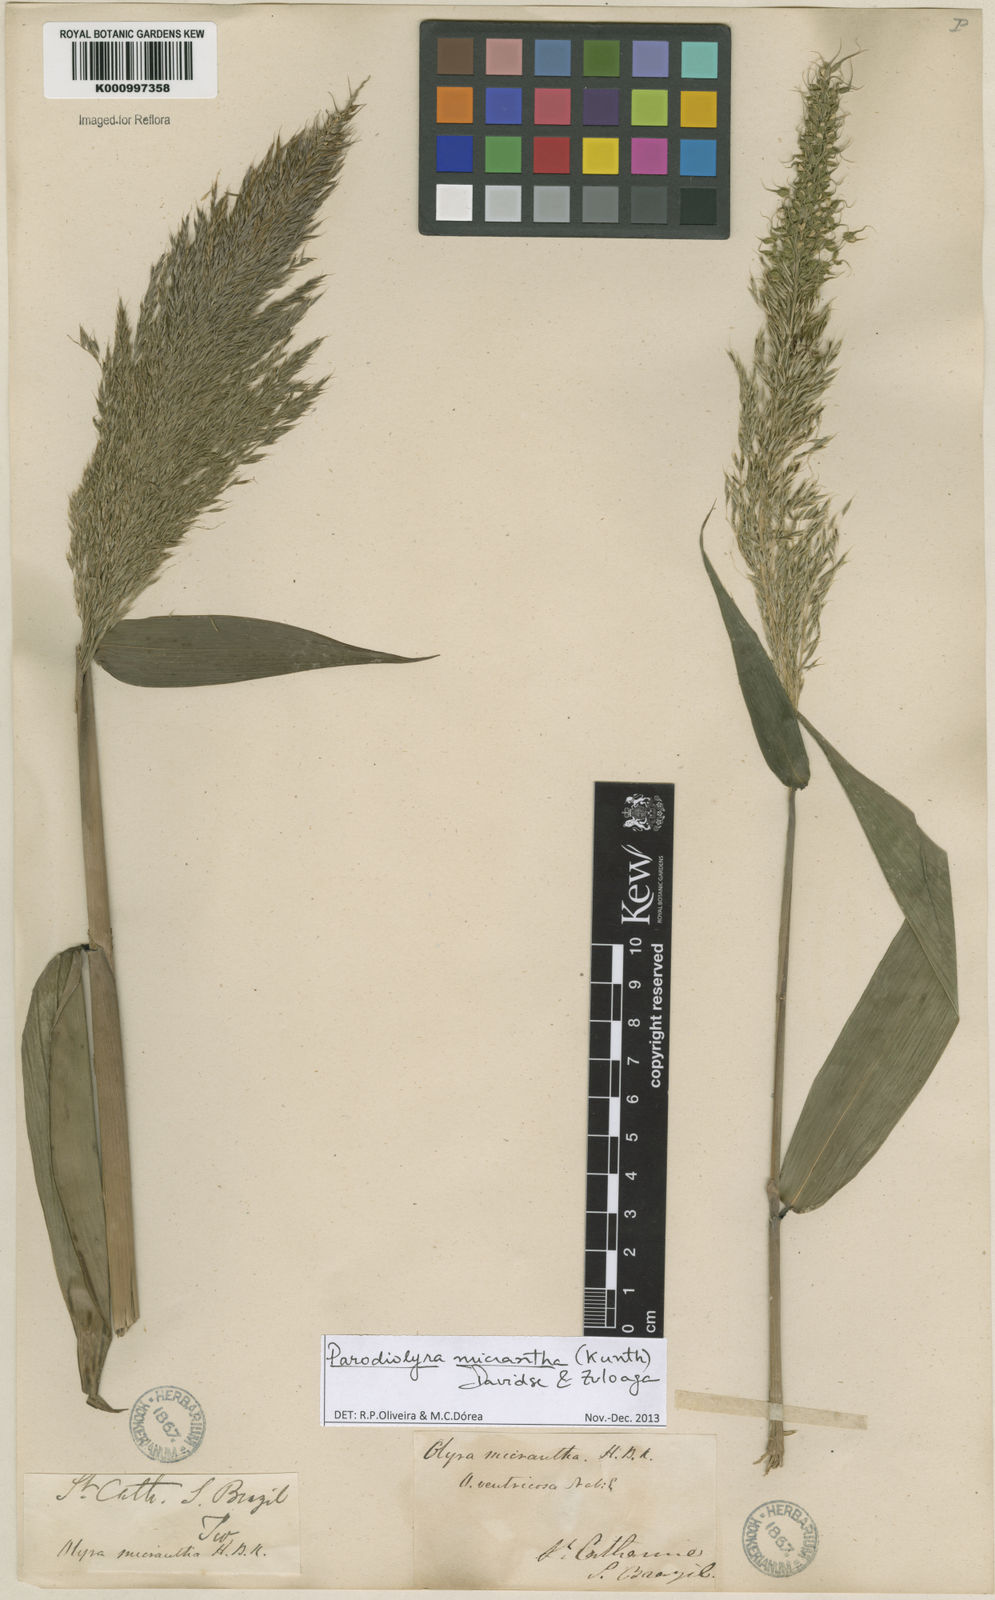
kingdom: Plantae
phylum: Tracheophyta
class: Liliopsida
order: Poales
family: Poaceae
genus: Taquara
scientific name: Taquara micrantha
